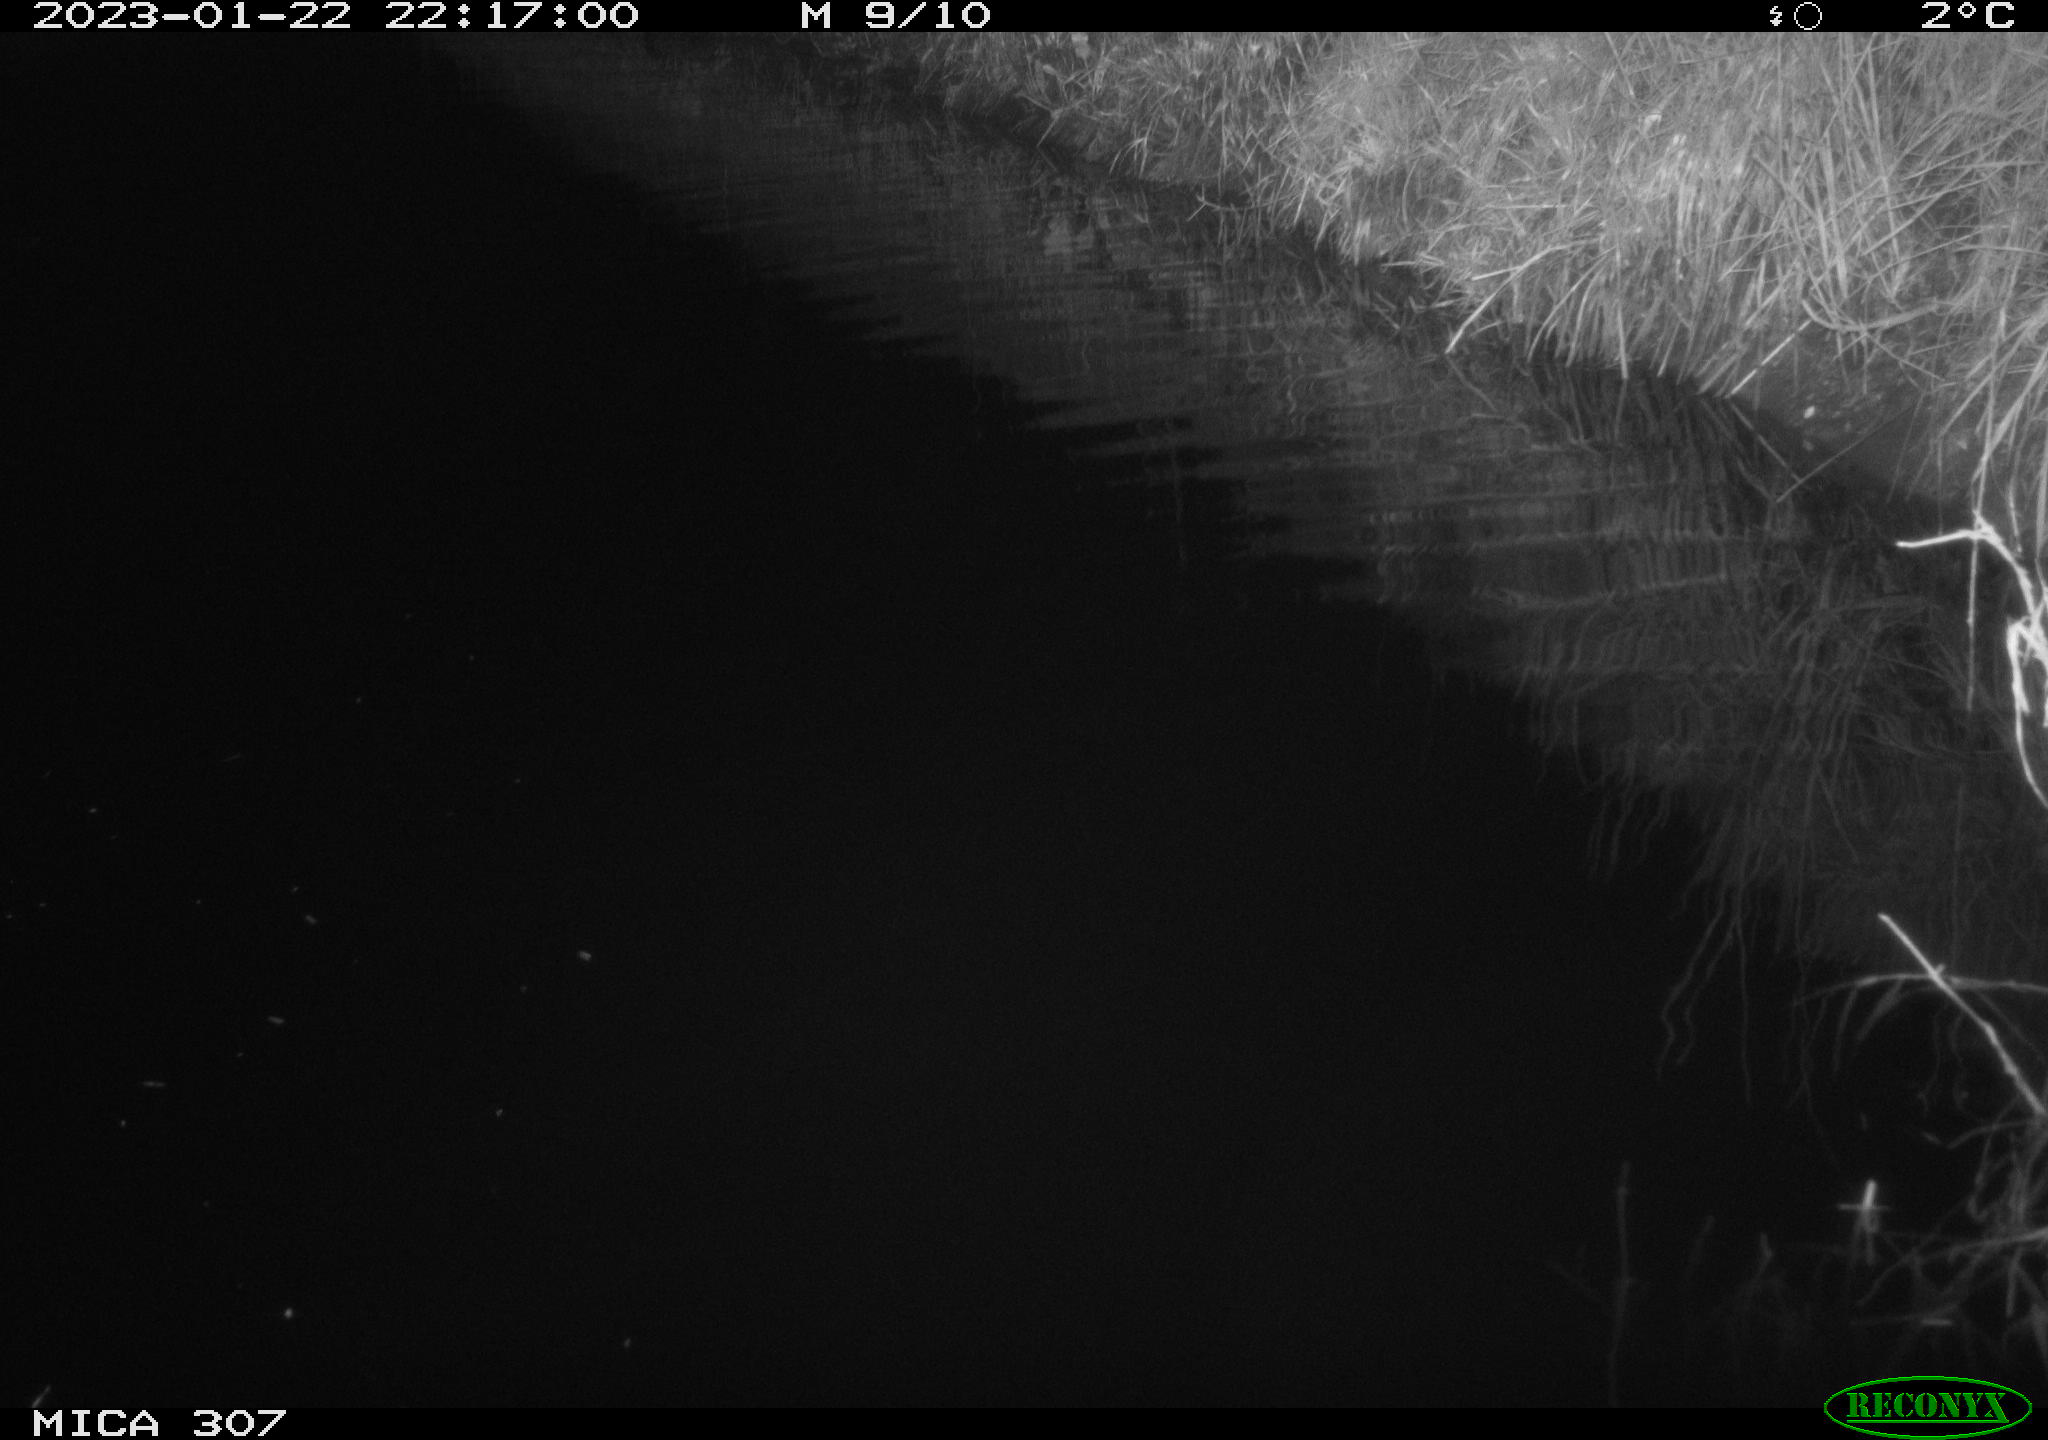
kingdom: Animalia
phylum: Chordata
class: Mammalia
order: Rodentia
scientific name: Rodentia
